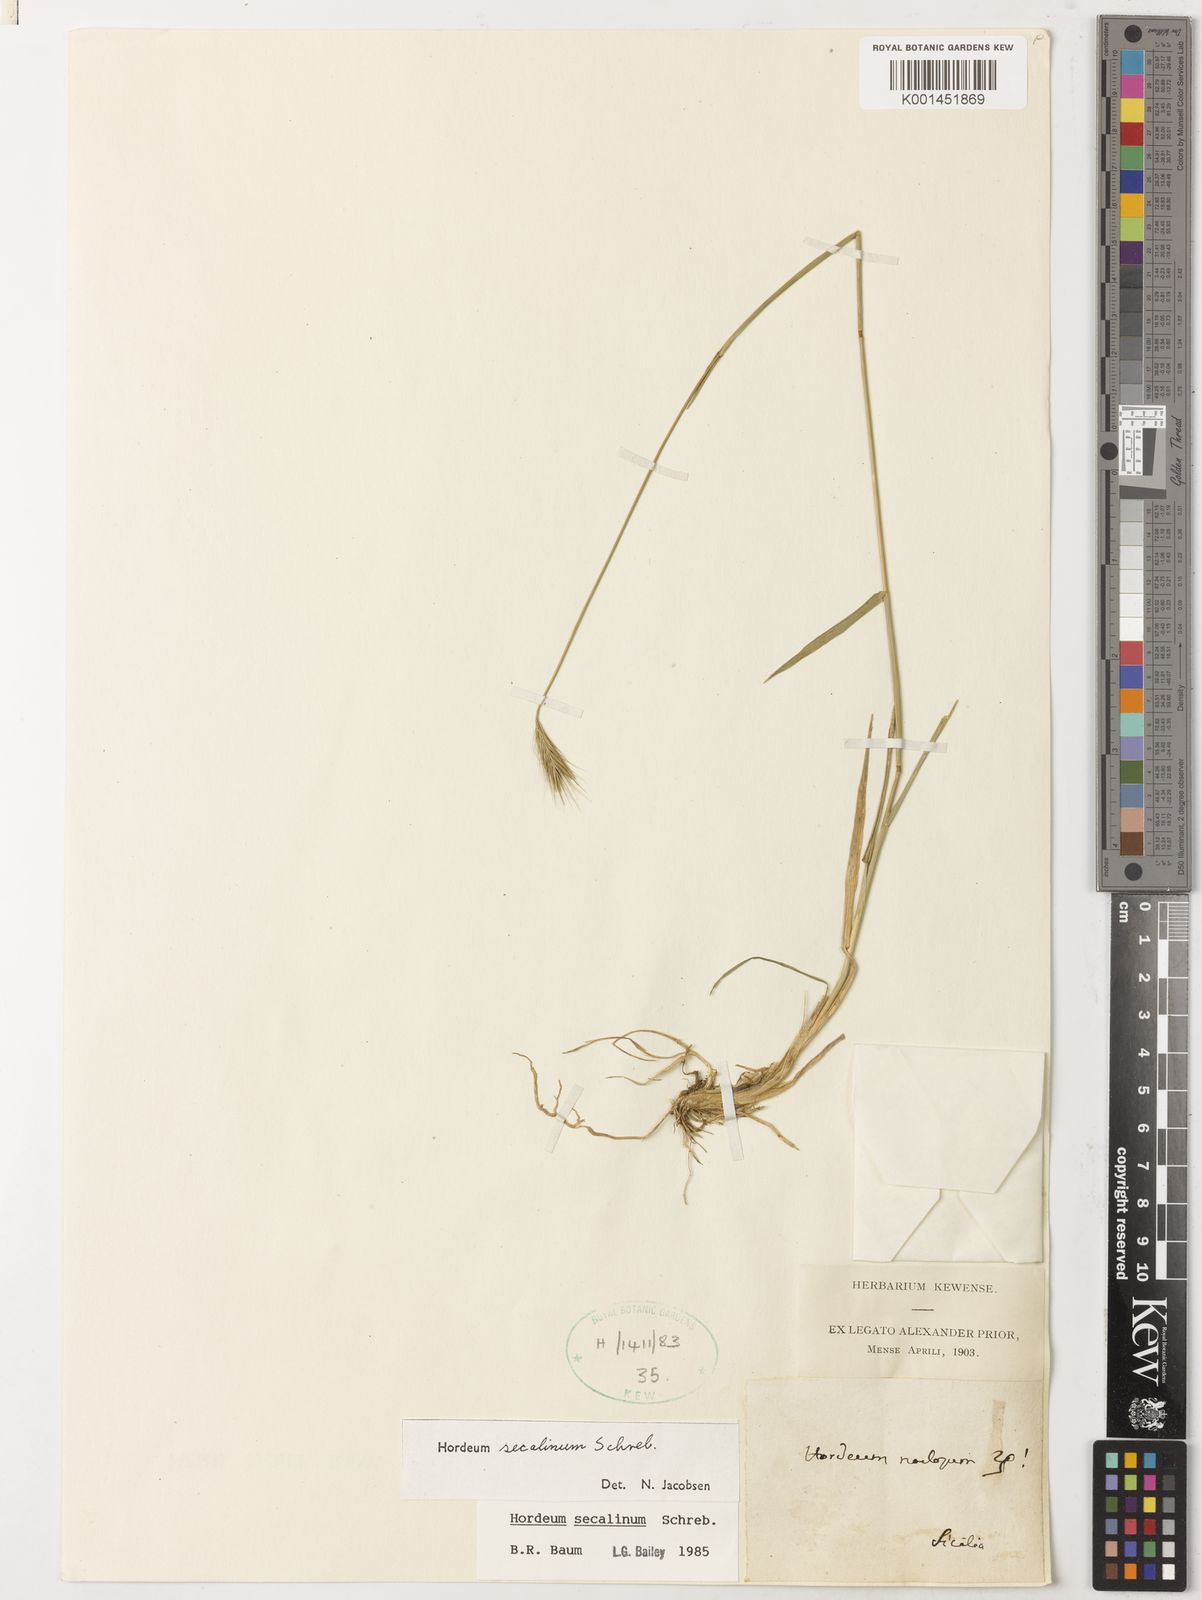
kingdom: Plantae
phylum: Tracheophyta
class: Liliopsida
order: Poales
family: Poaceae
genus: Hordeum
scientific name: Hordeum secalinum
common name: Meadow barley
